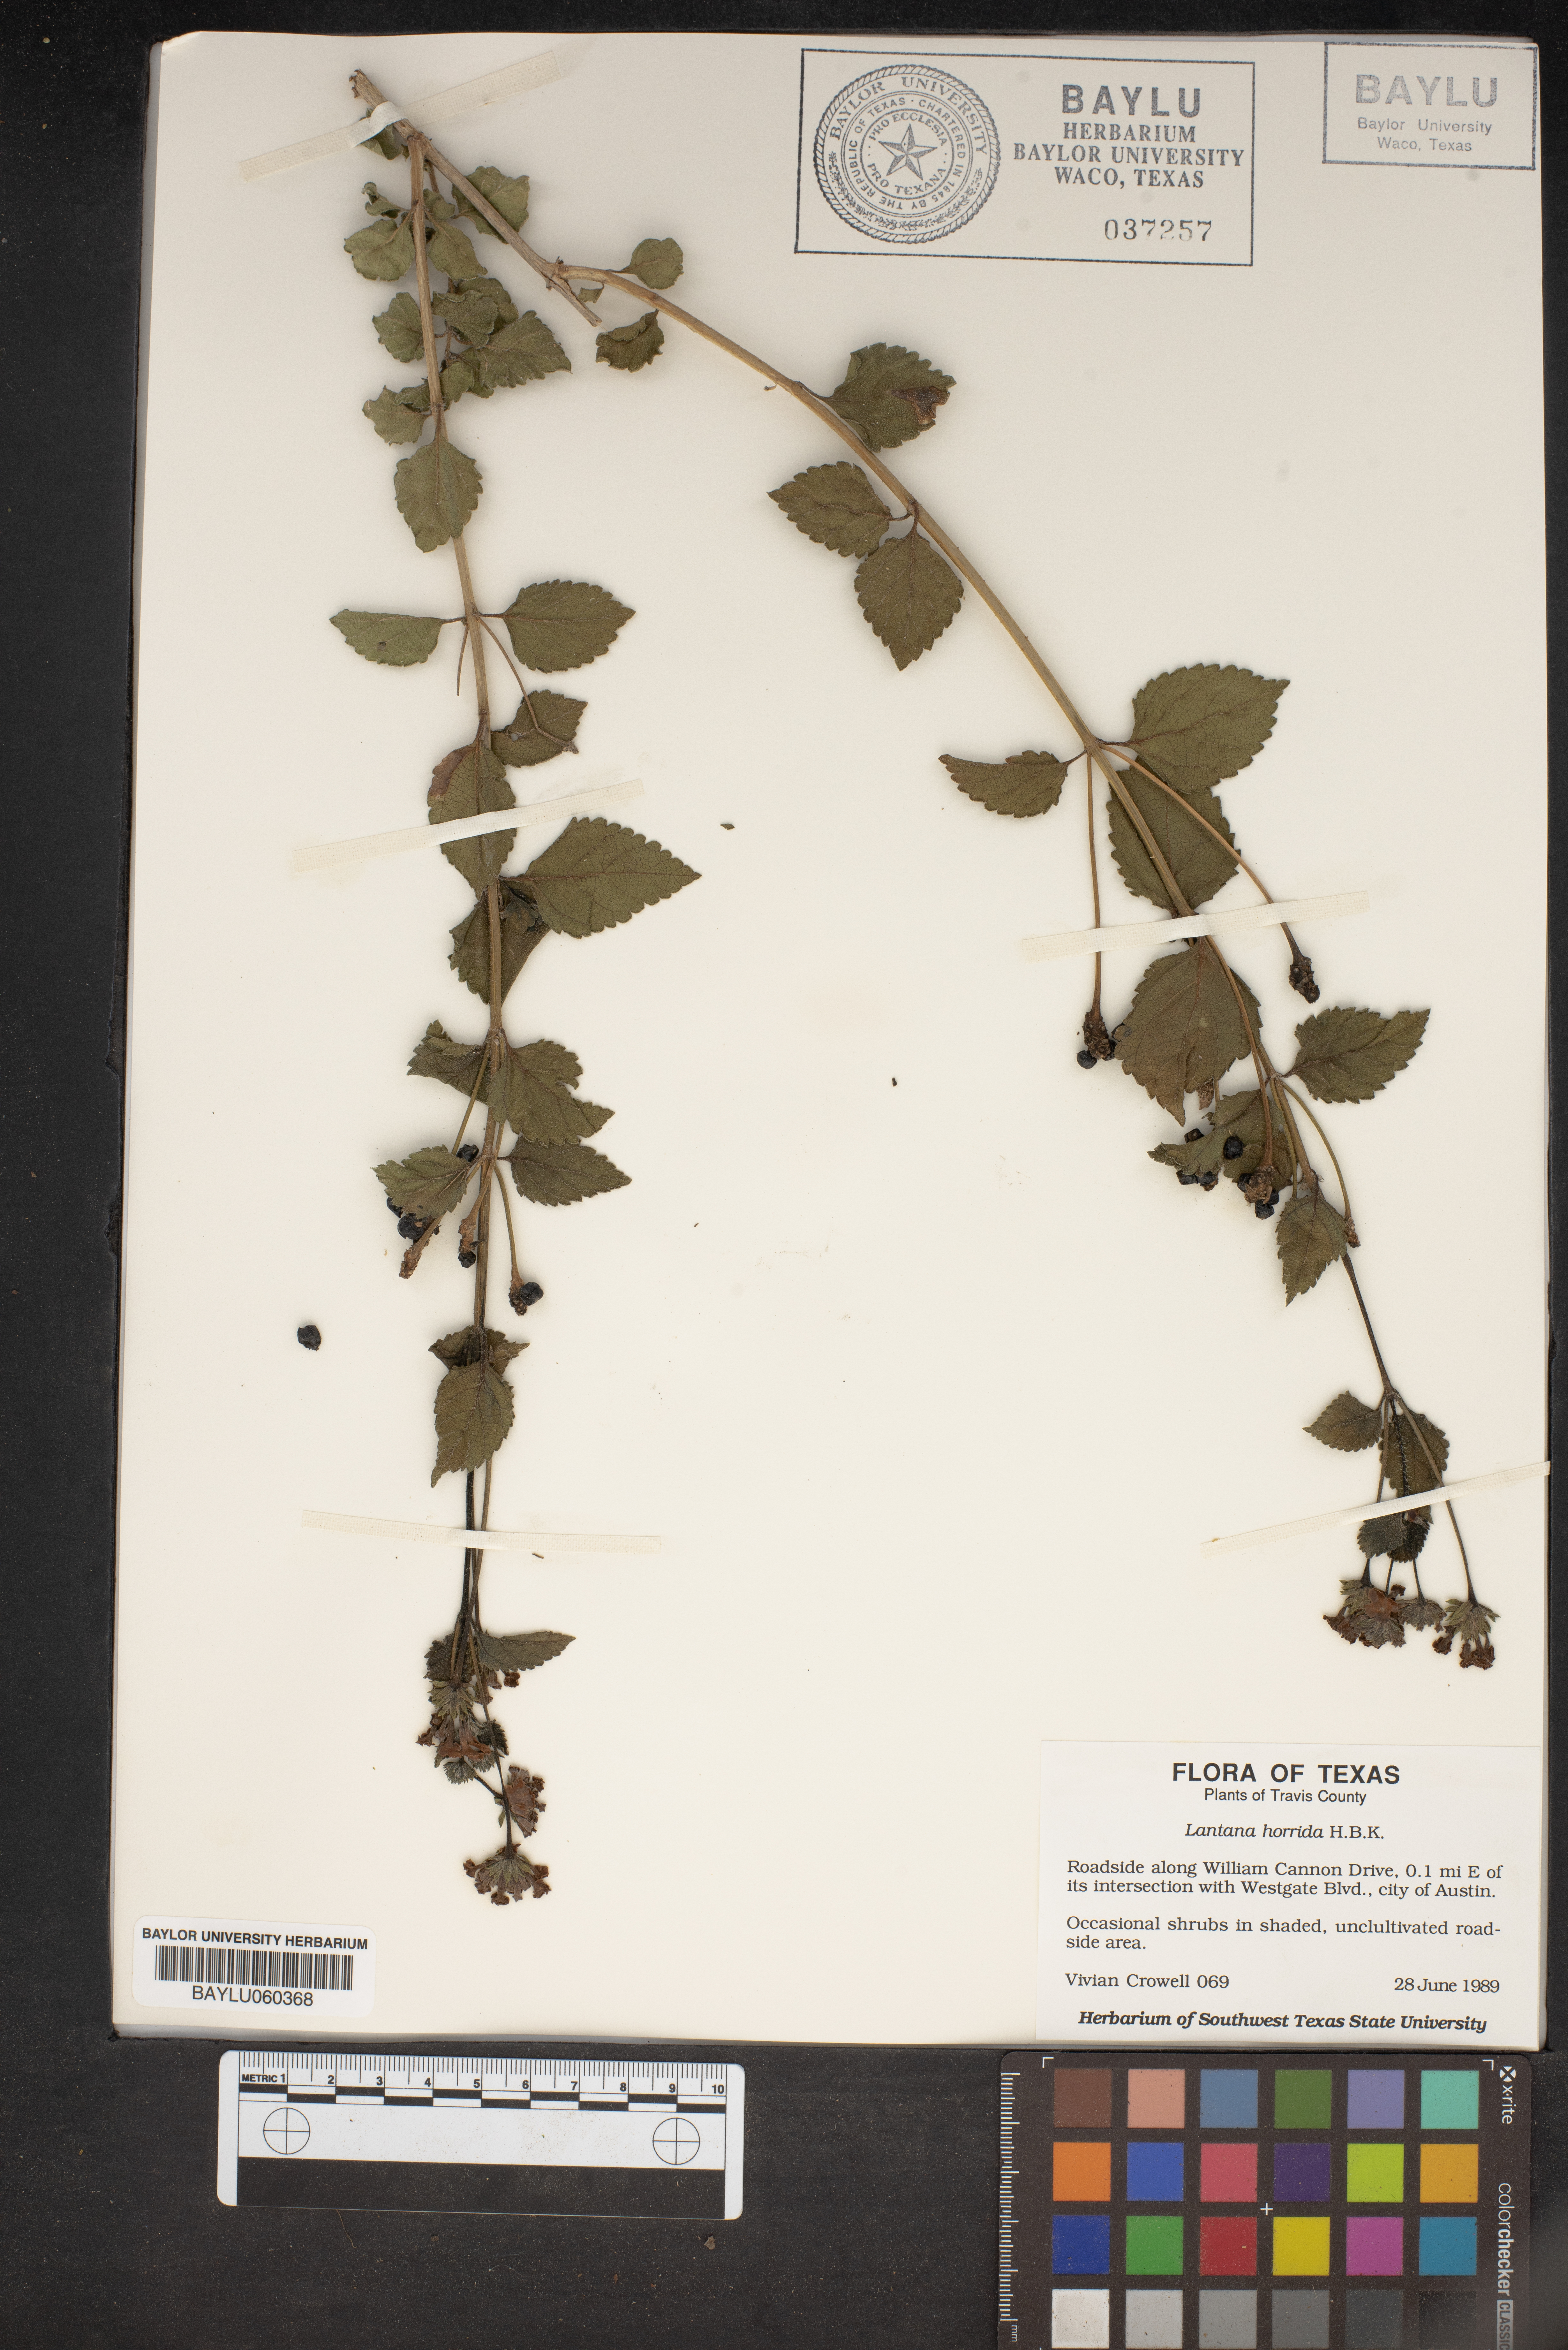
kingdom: Plantae
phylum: Tracheophyta
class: Magnoliopsida
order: Lamiales
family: Verbenaceae
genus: Lantana
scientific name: Lantana horrida
